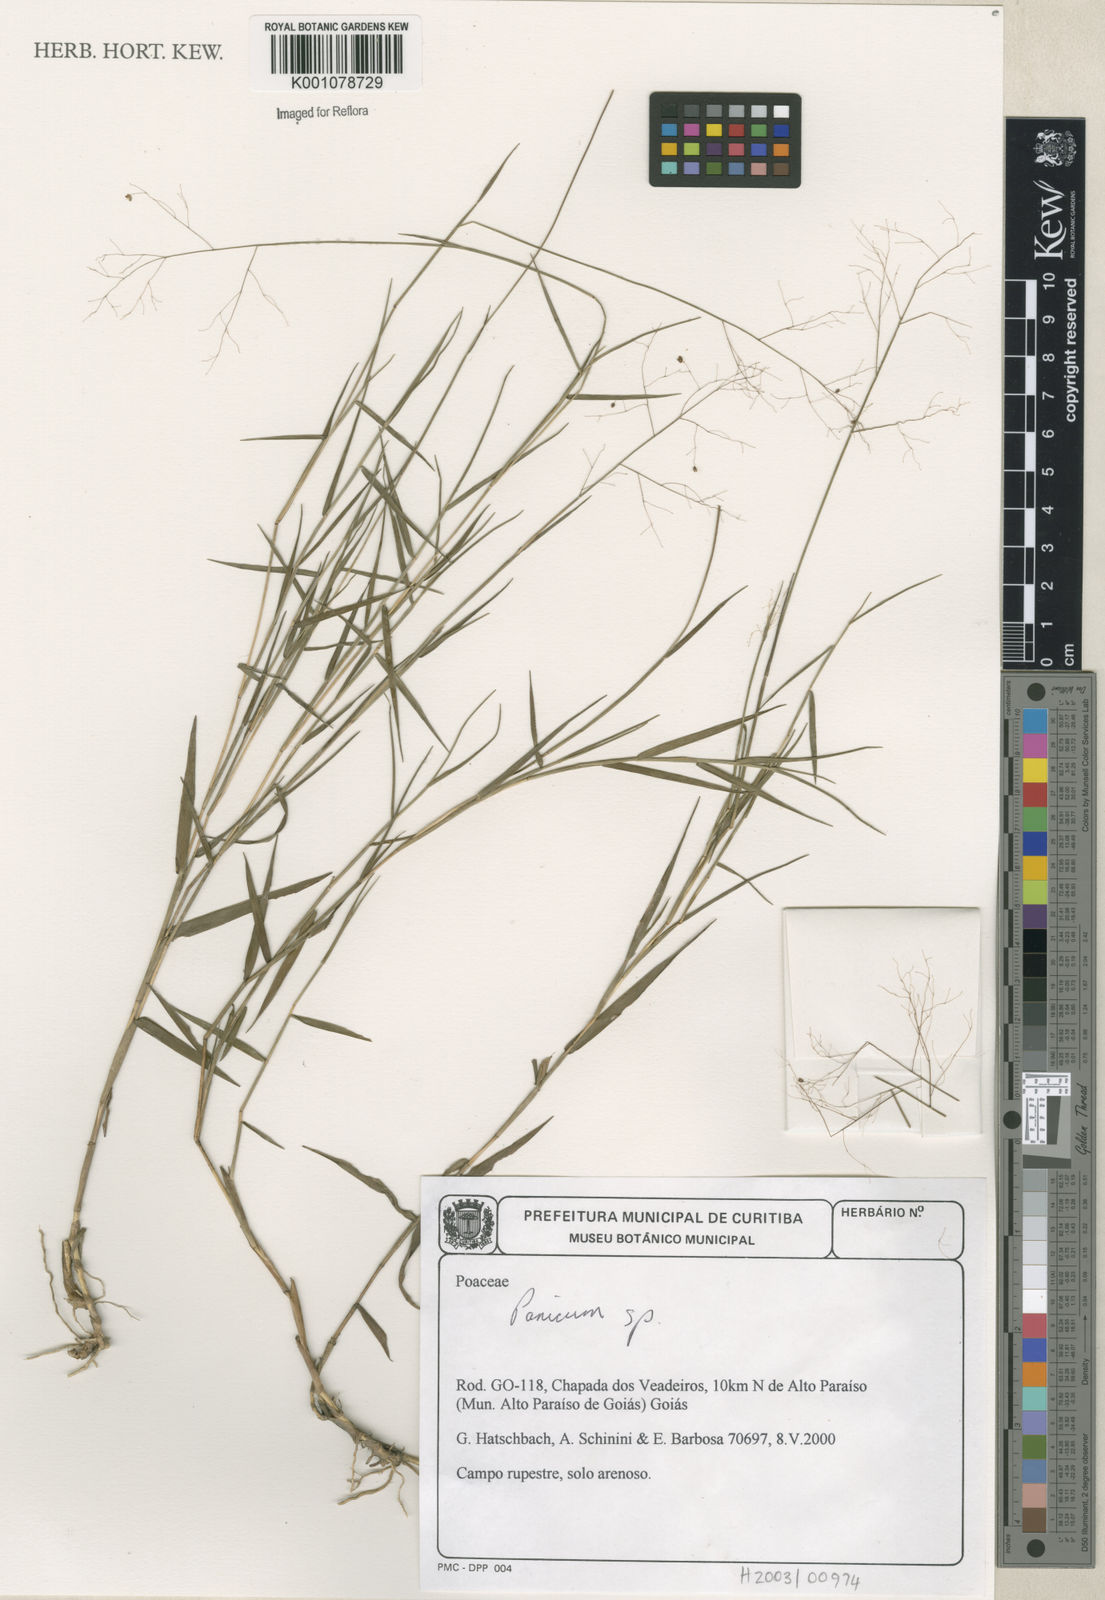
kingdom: Plantae
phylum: Tracheophyta
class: Liliopsida
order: Poales
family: Poaceae
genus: Panicum
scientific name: Panicum
